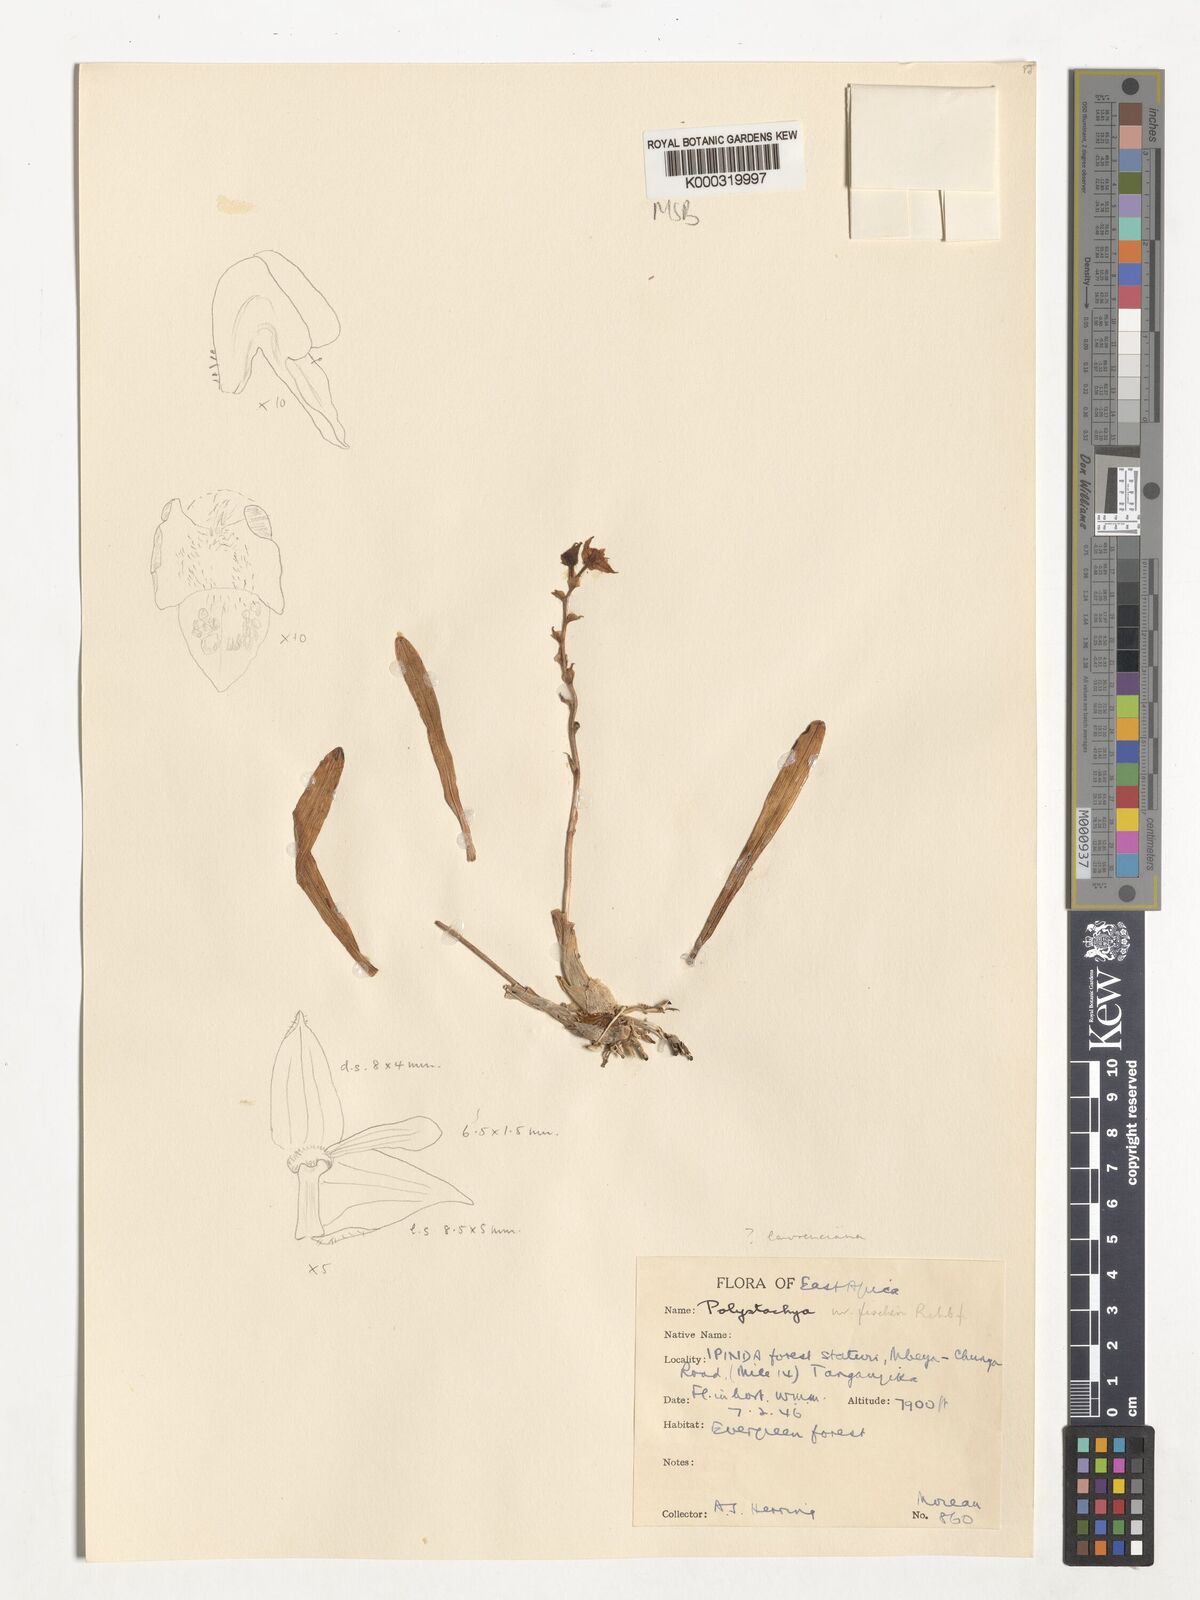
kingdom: Plantae
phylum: Tracheophyta
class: Liliopsida
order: Asparagales
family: Orchidaceae
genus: Polystachya
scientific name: Polystachya fischeri
